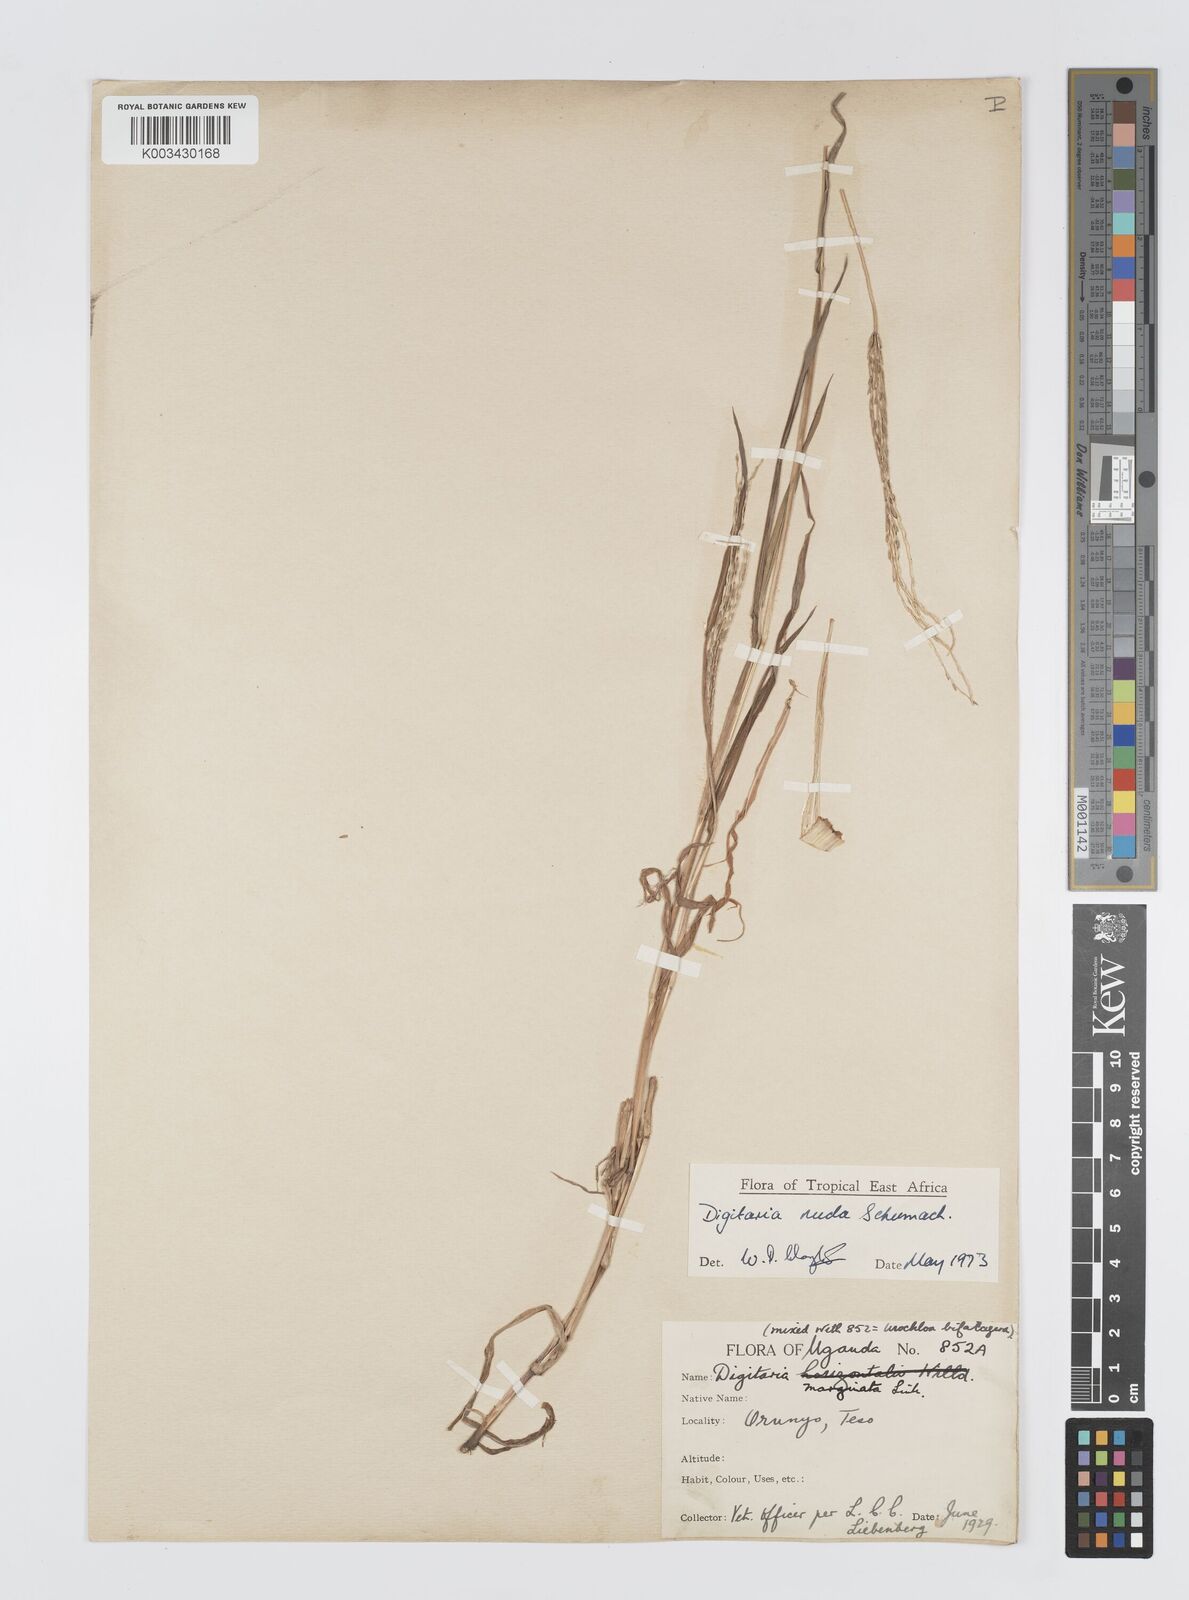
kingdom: Plantae
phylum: Tracheophyta
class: Liliopsida
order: Poales
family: Poaceae
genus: Digitaria
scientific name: Digitaria nuda
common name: Naked crabgrass
